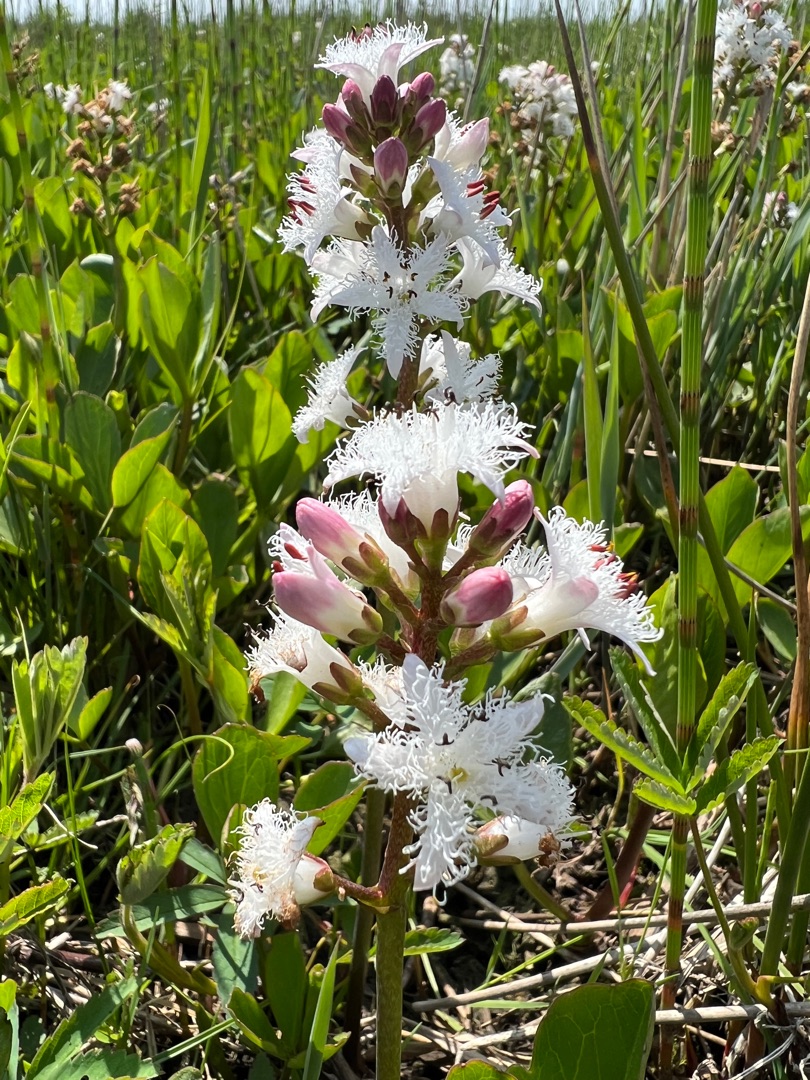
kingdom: Plantae
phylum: Tracheophyta
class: Magnoliopsida
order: Asterales
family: Menyanthaceae
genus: Menyanthes
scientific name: Menyanthes trifoliata
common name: Bukkeblad
